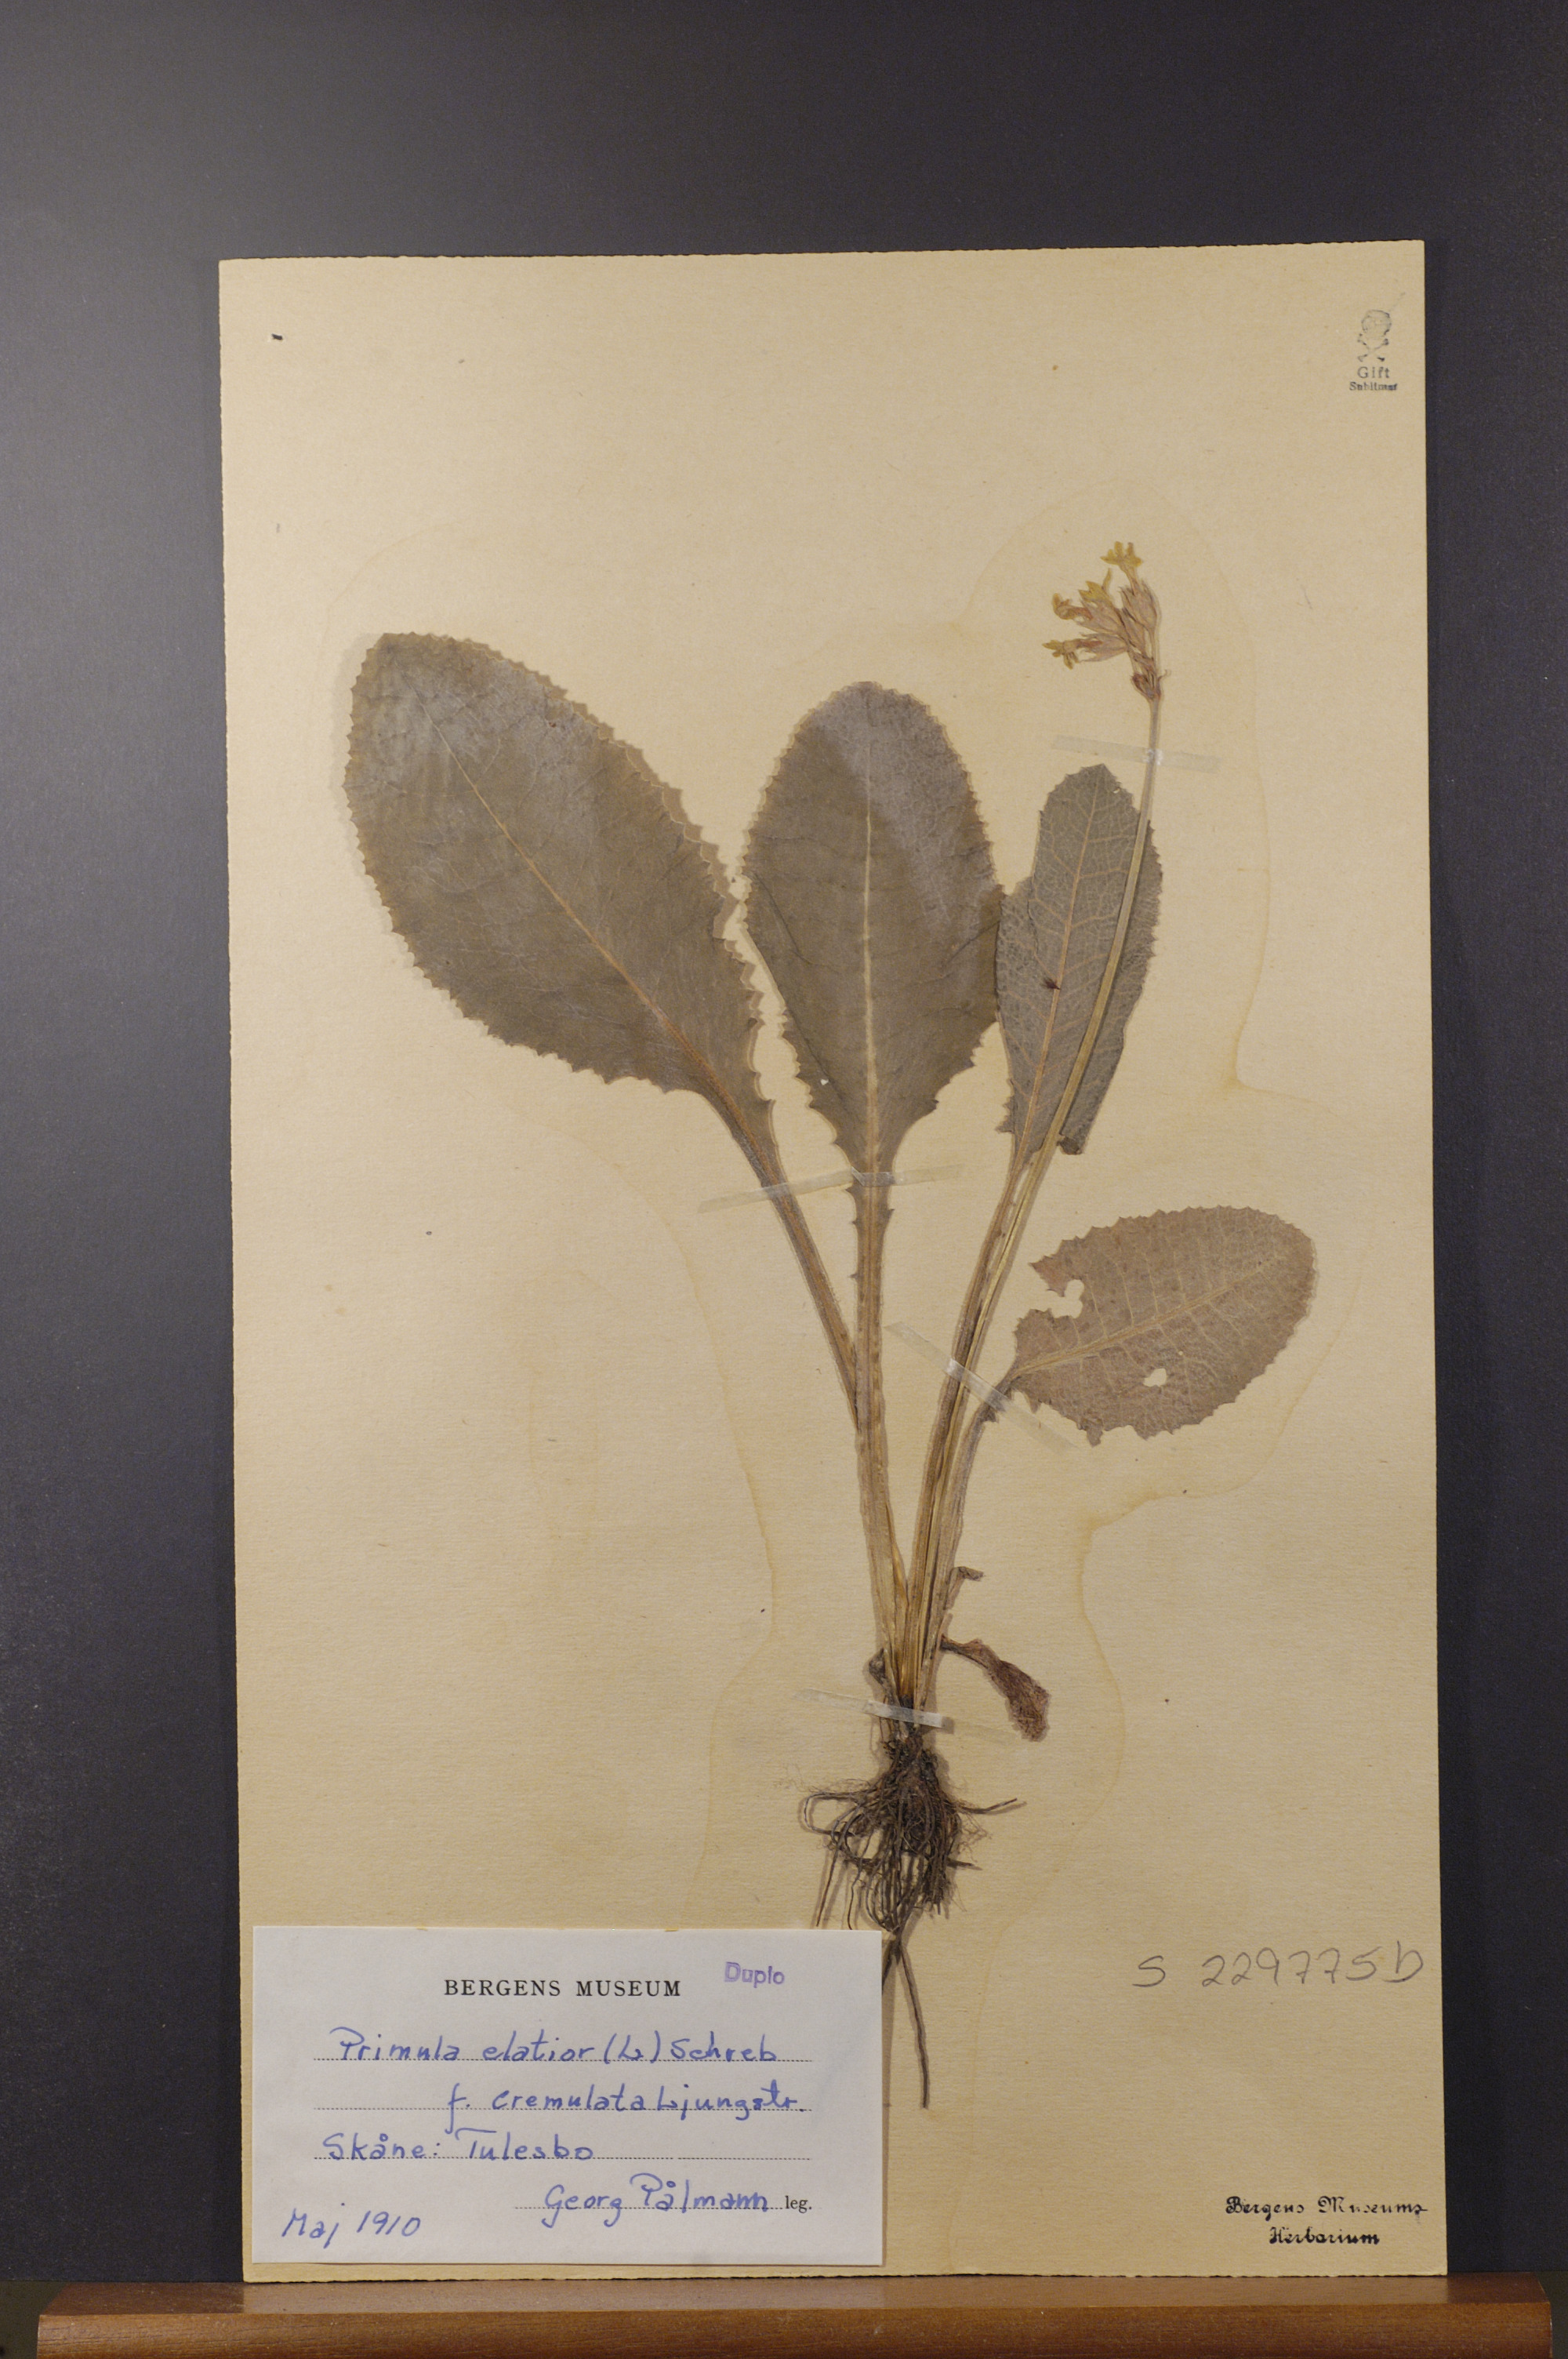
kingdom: Plantae
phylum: Tracheophyta
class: Magnoliopsida
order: Ericales
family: Primulaceae
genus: Primula
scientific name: Primula elatior
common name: Oxlip
